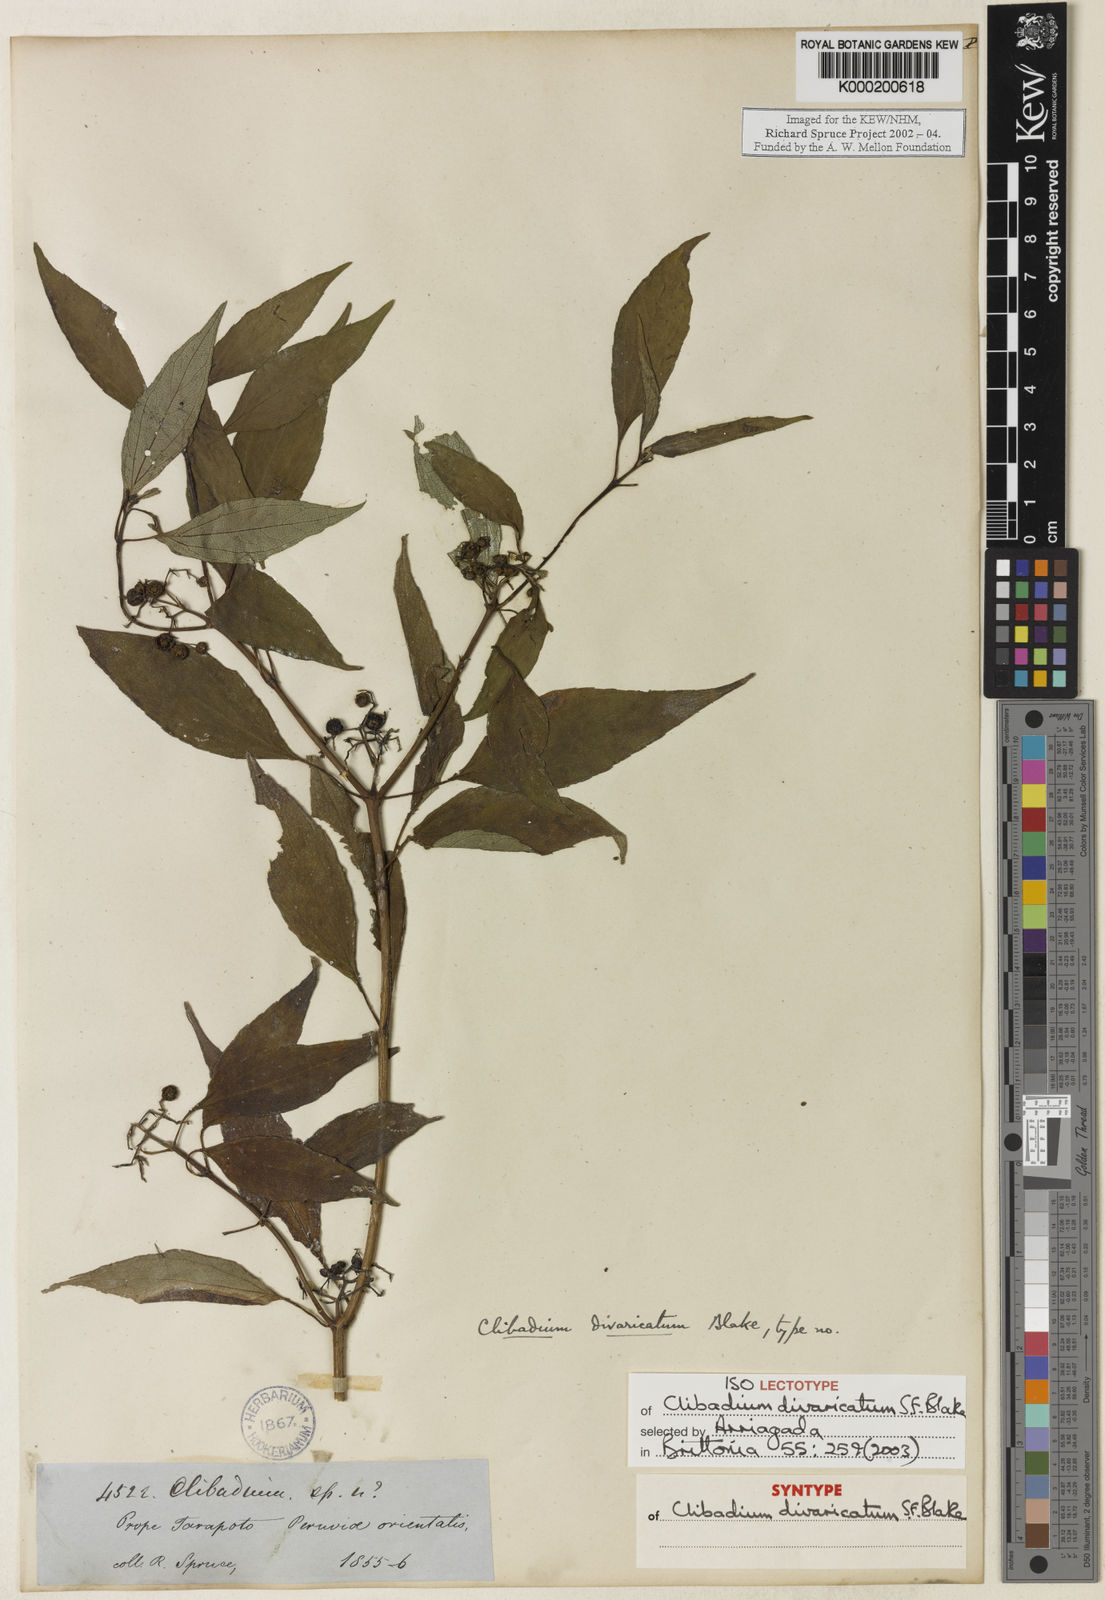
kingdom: Plantae
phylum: Tracheophyta
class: Magnoliopsida
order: Asterales
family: Asteraceae
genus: Clibadium
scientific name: Clibadium divaricatum
